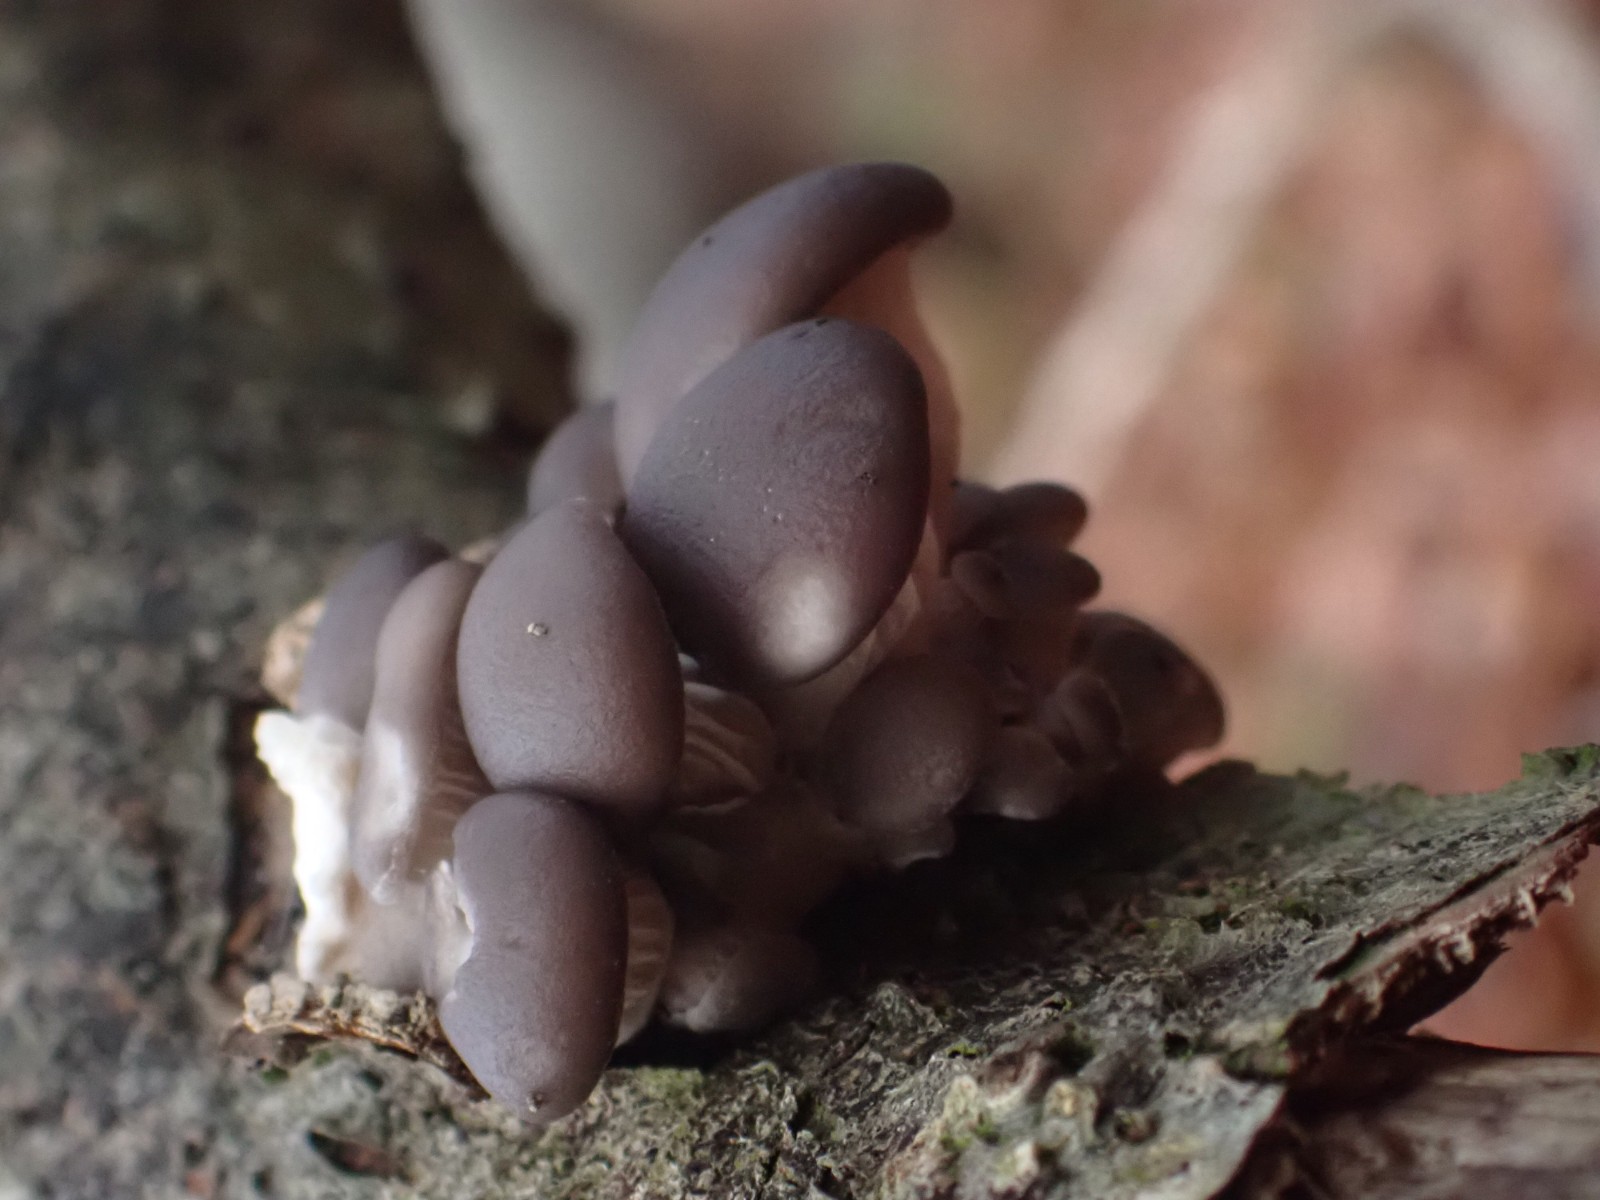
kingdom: Fungi
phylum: Basidiomycota
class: Agaricomycetes
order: Agaricales
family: Pleurotaceae
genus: Pleurotus
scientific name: Pleurotus ostreatus
